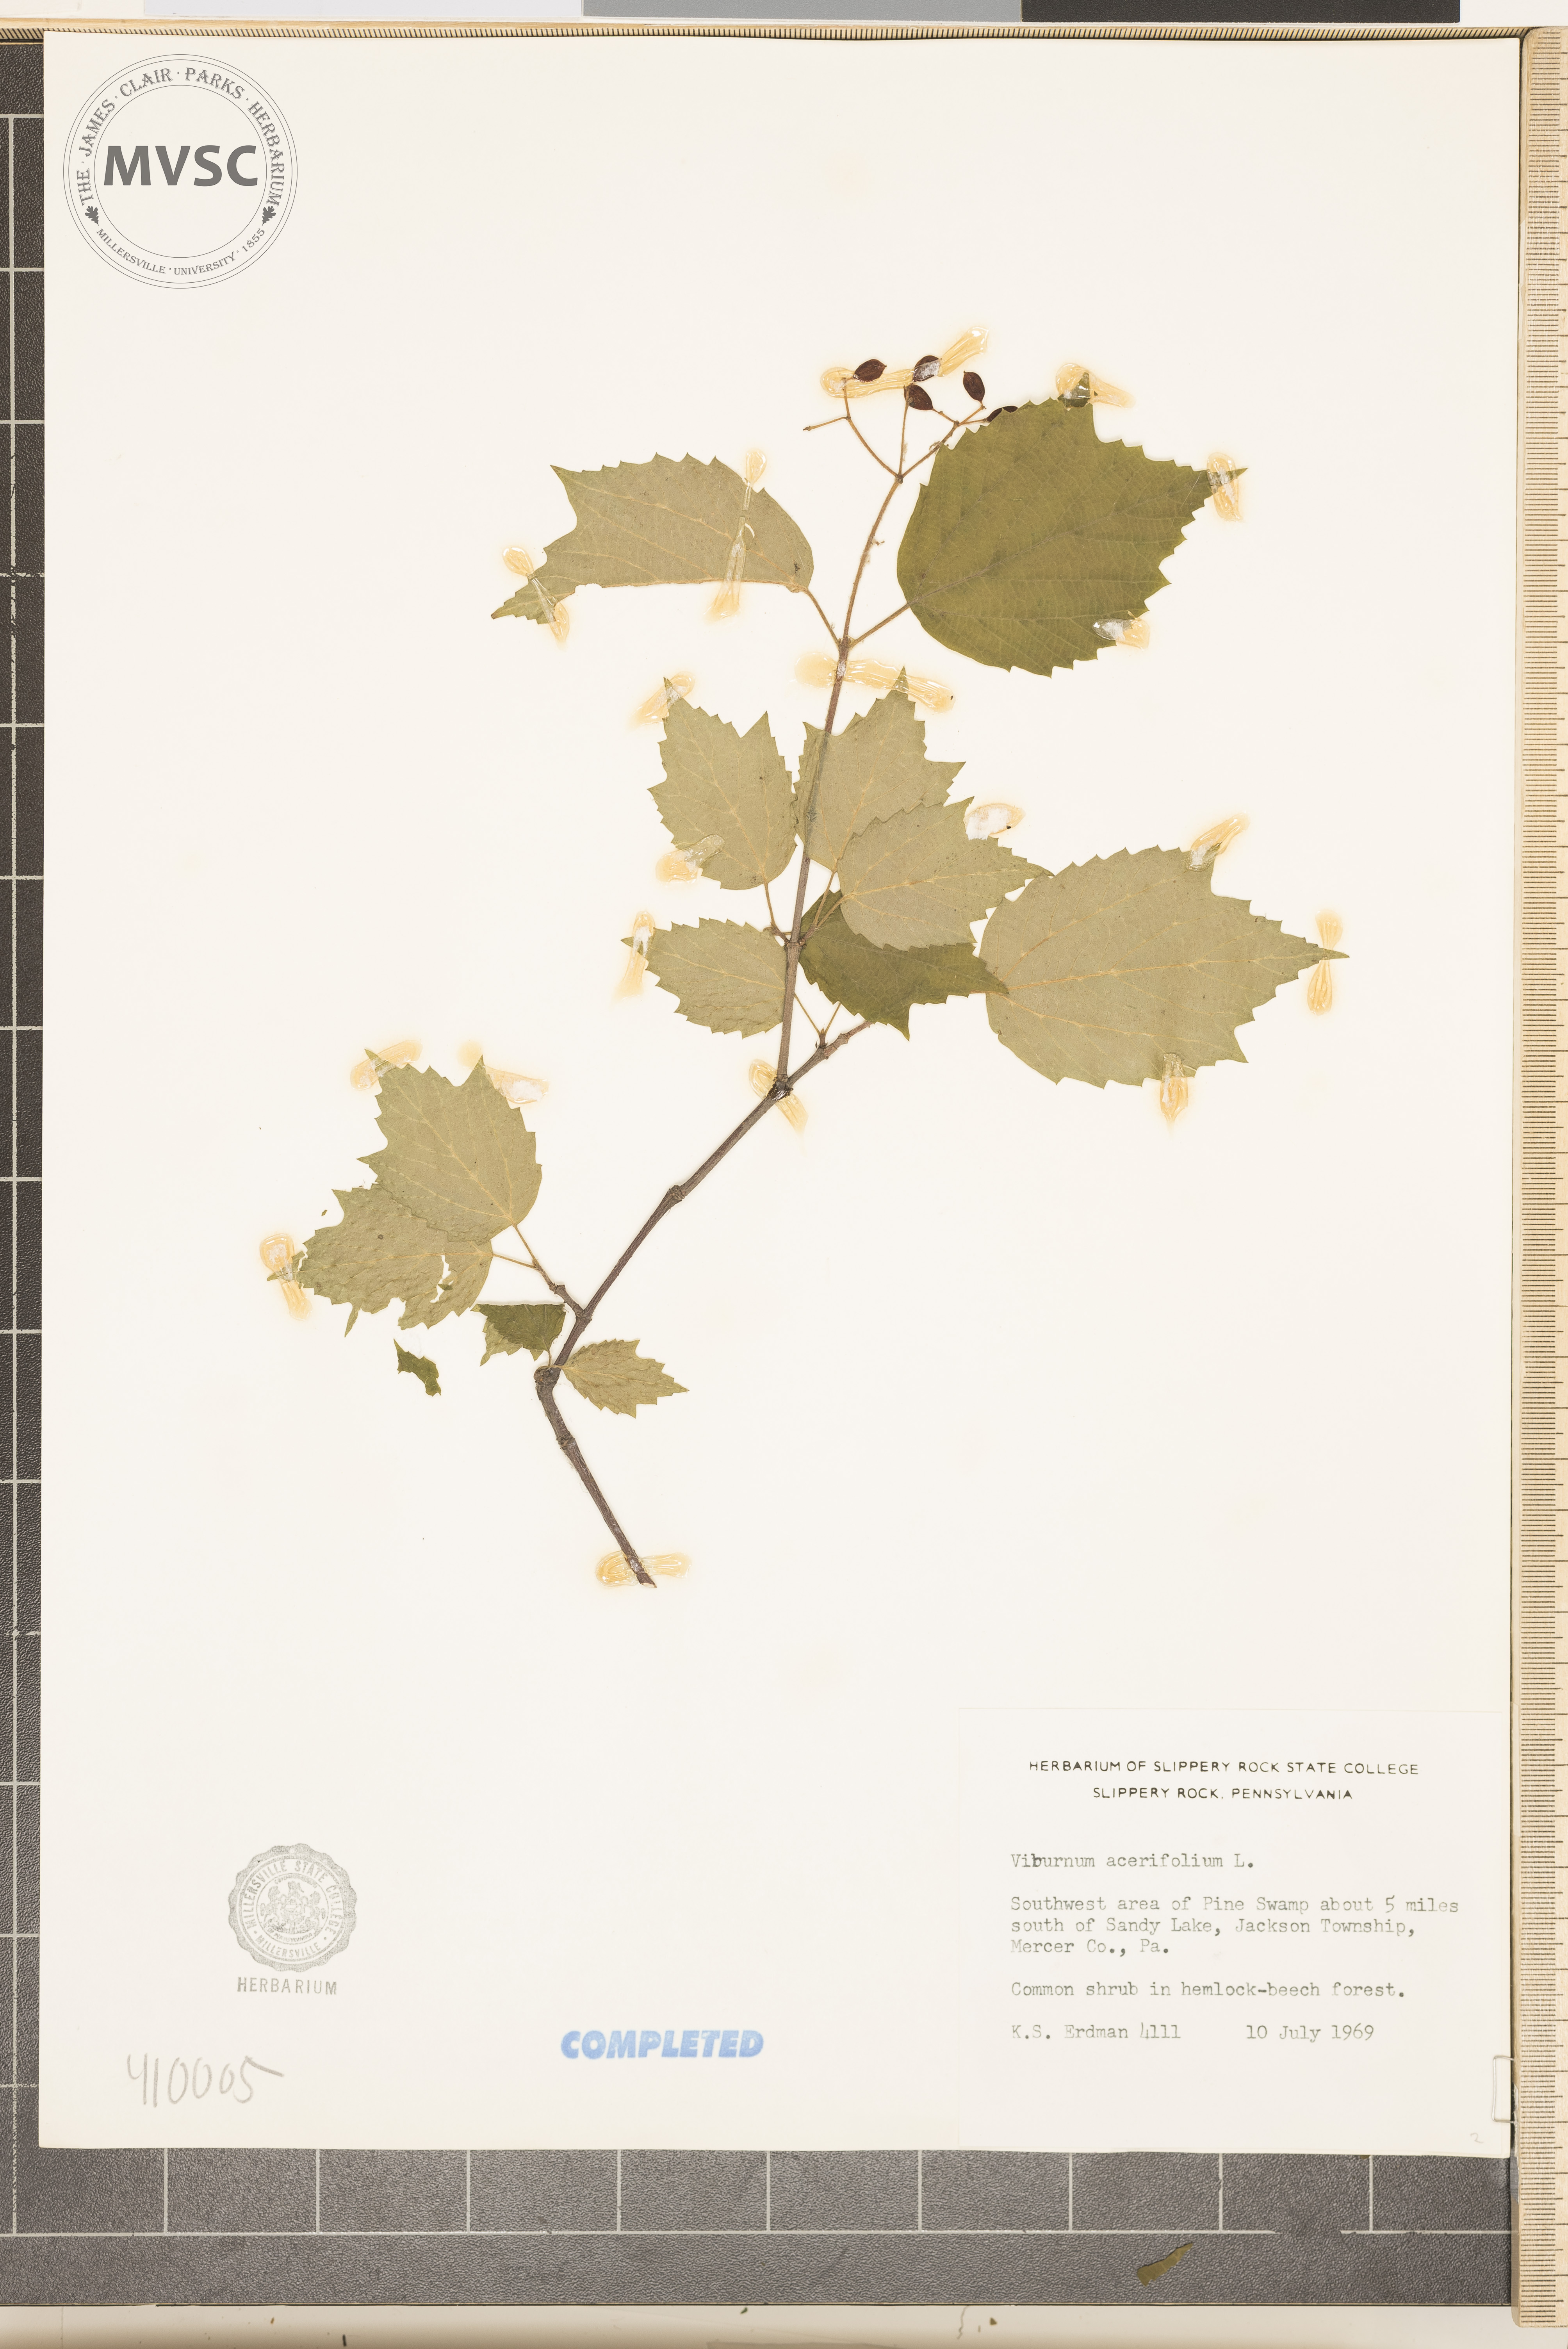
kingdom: Plantae
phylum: Tracheophyta
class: Magnoliopsida
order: Dipsacales
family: Viburnaceae
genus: Viburnum
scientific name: Viburnum acerifolium
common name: mapleleaf viburnum
